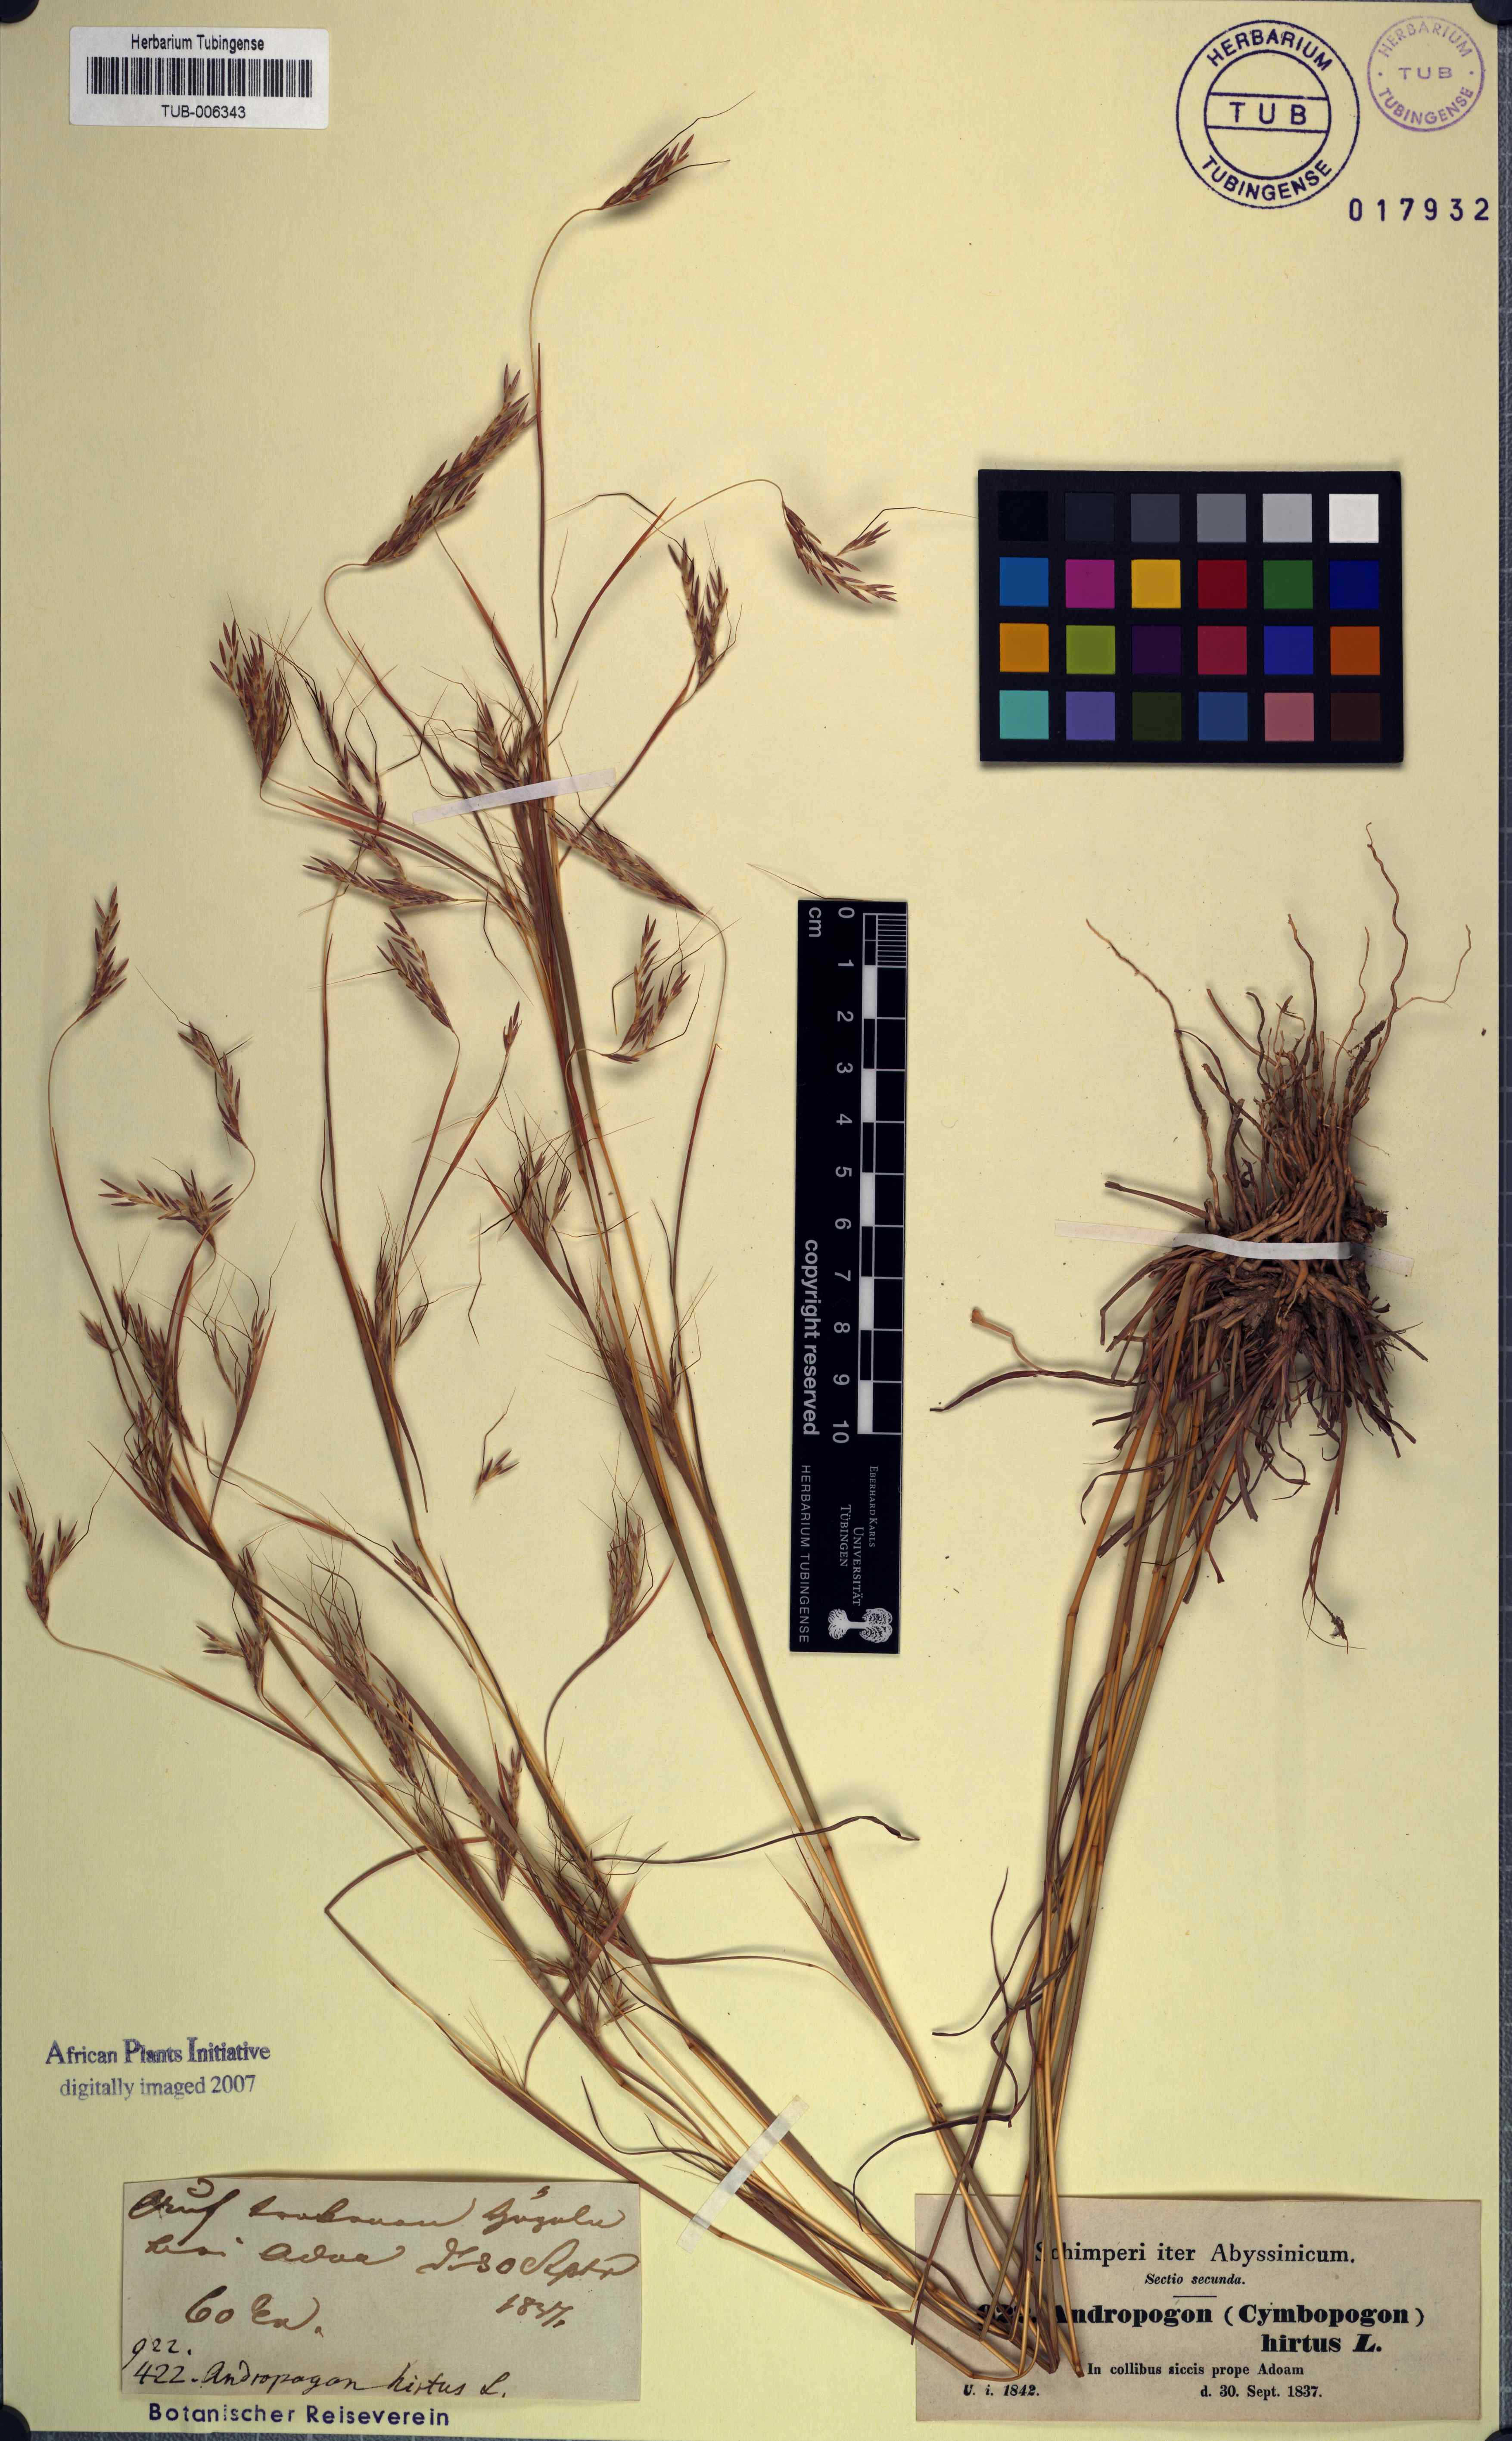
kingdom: Plantae
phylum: Tracheophyta
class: Liliopsida
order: Poales
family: Poaceae
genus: Hyparrhenia
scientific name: Hyparrhenia hirta
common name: Thatching grass
